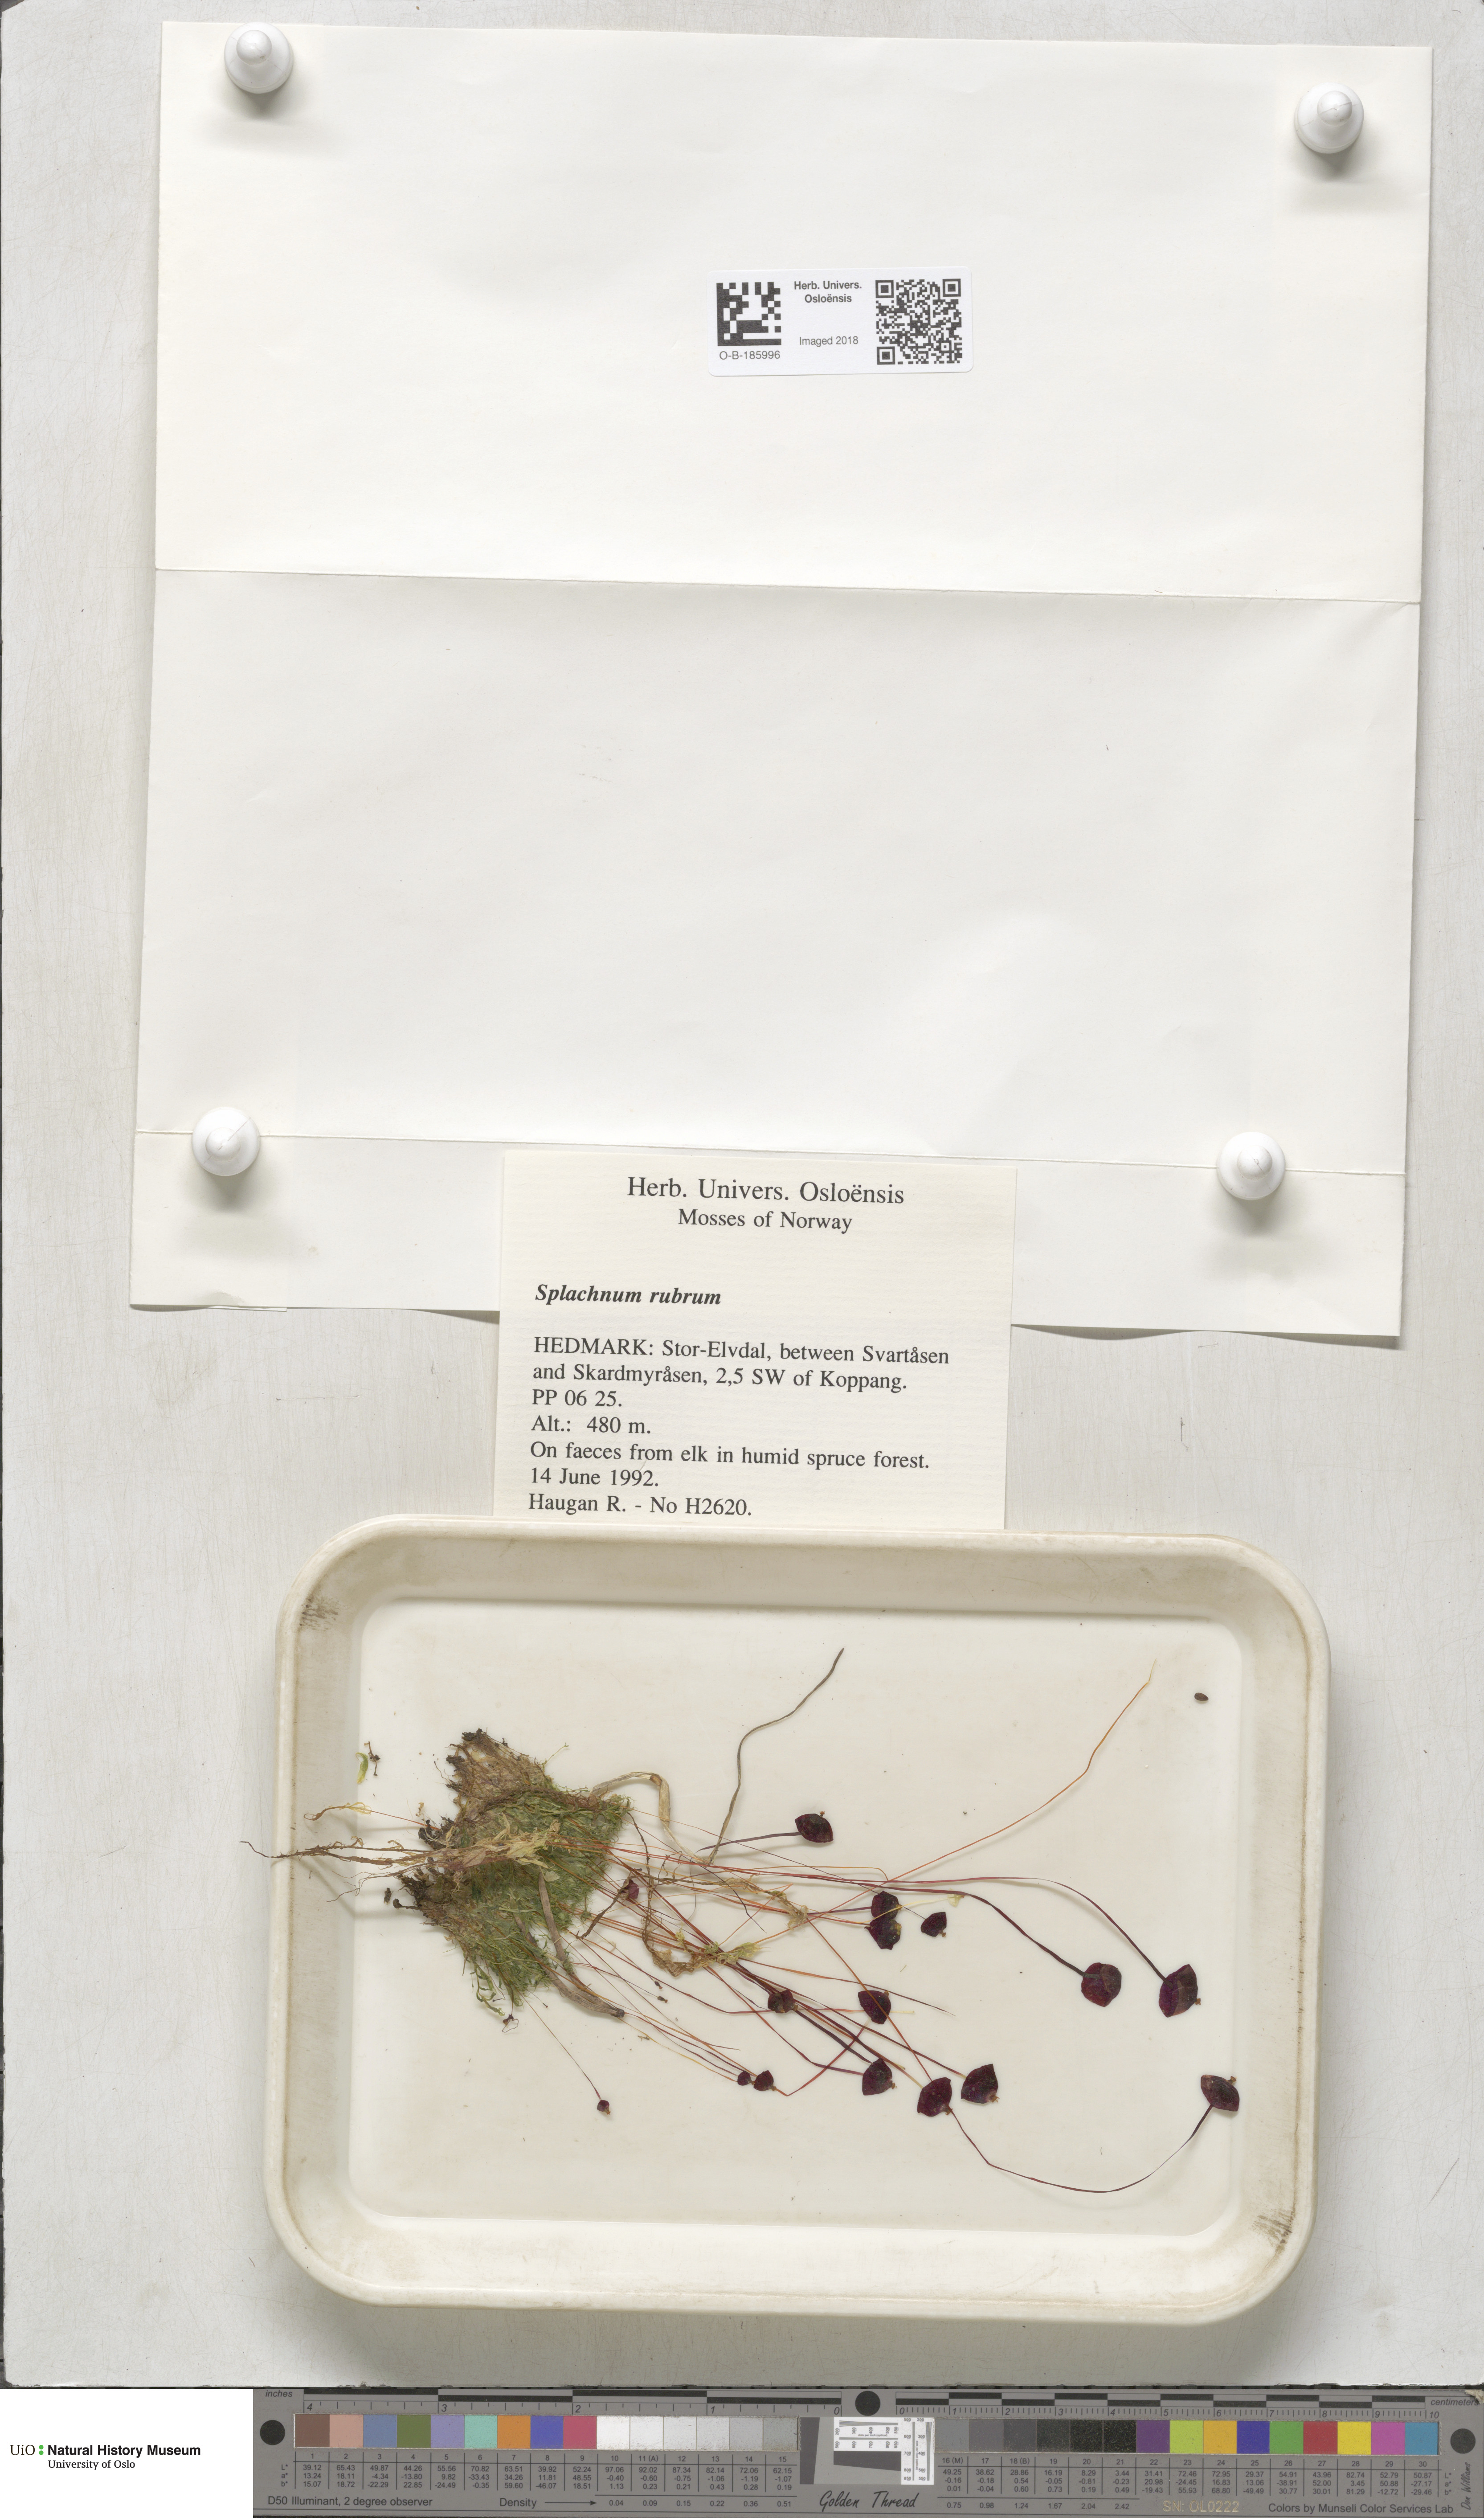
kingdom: Plantae
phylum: Bryophyta
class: Bryopsida
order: Splachnales
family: Splachnaceae
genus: Splachnum
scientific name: Splachnum rubrum
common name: Red dung moss
